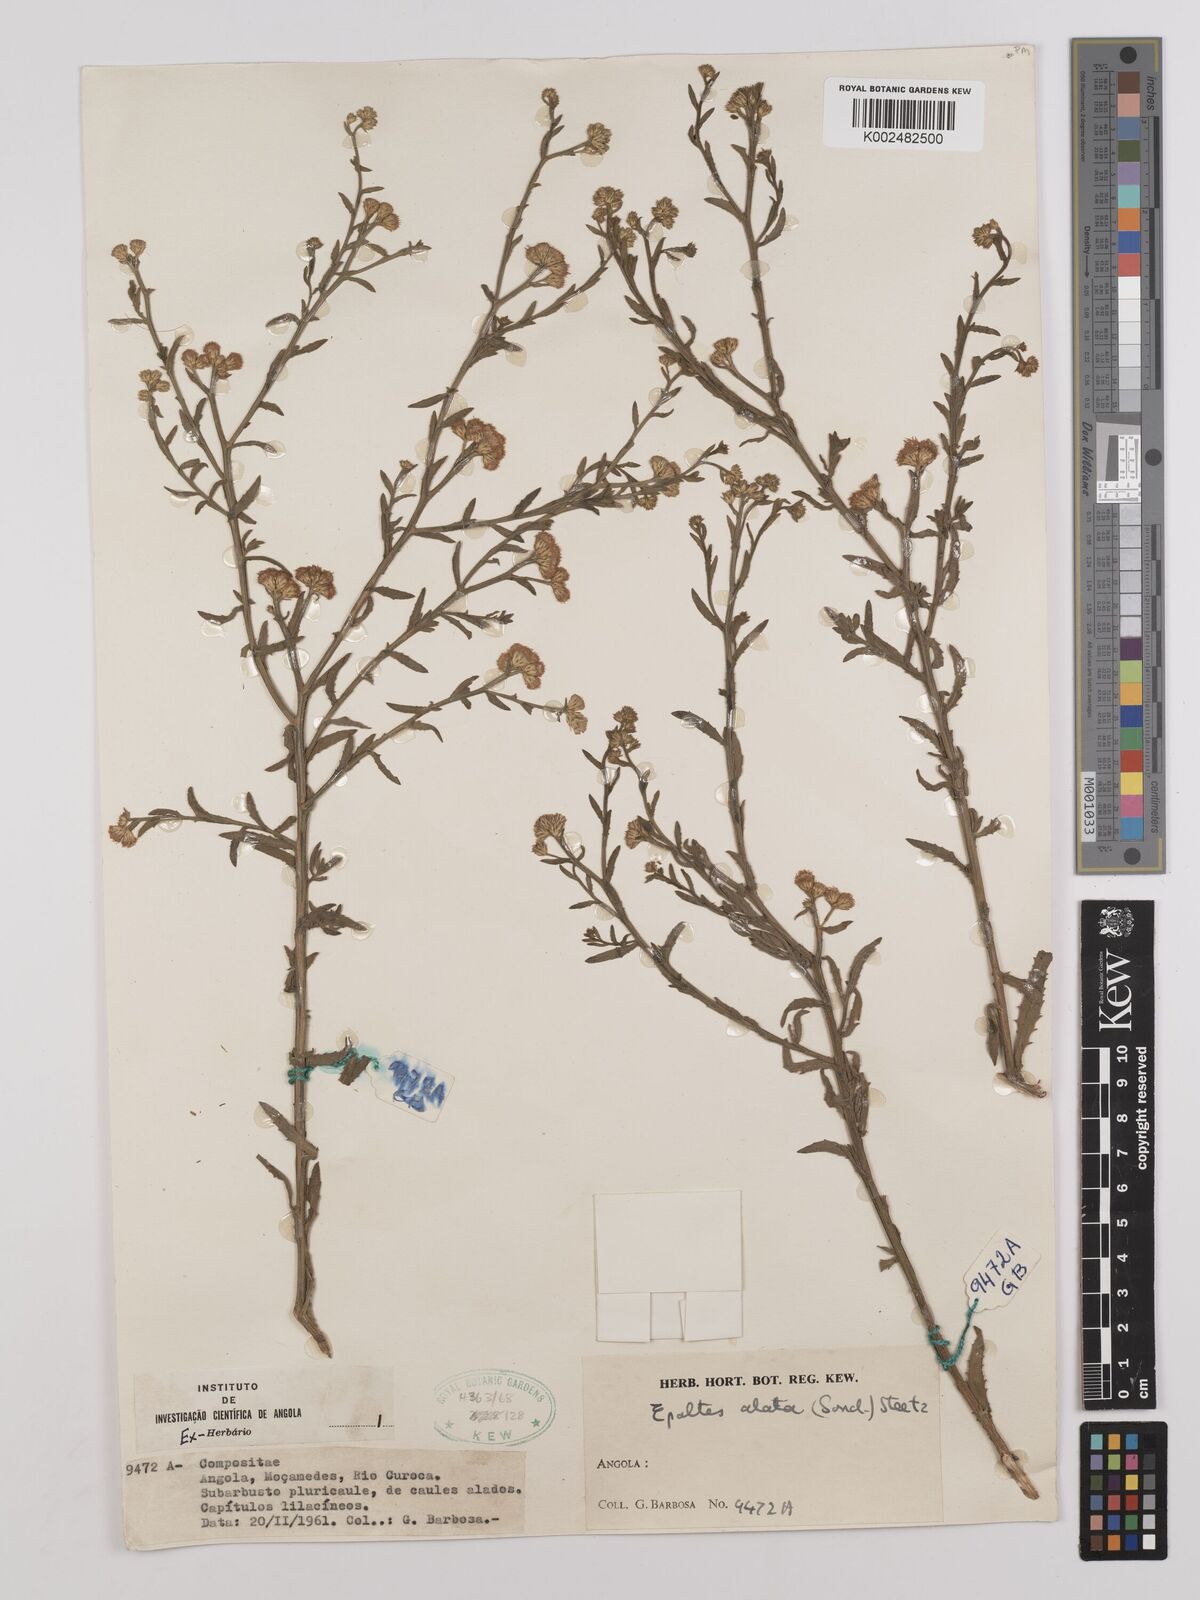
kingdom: Plantae
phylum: Tracheophyta
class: Magnoliopsida
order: Asterales
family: Asteraceae
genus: Litogyne
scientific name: Litogyne gariepina
